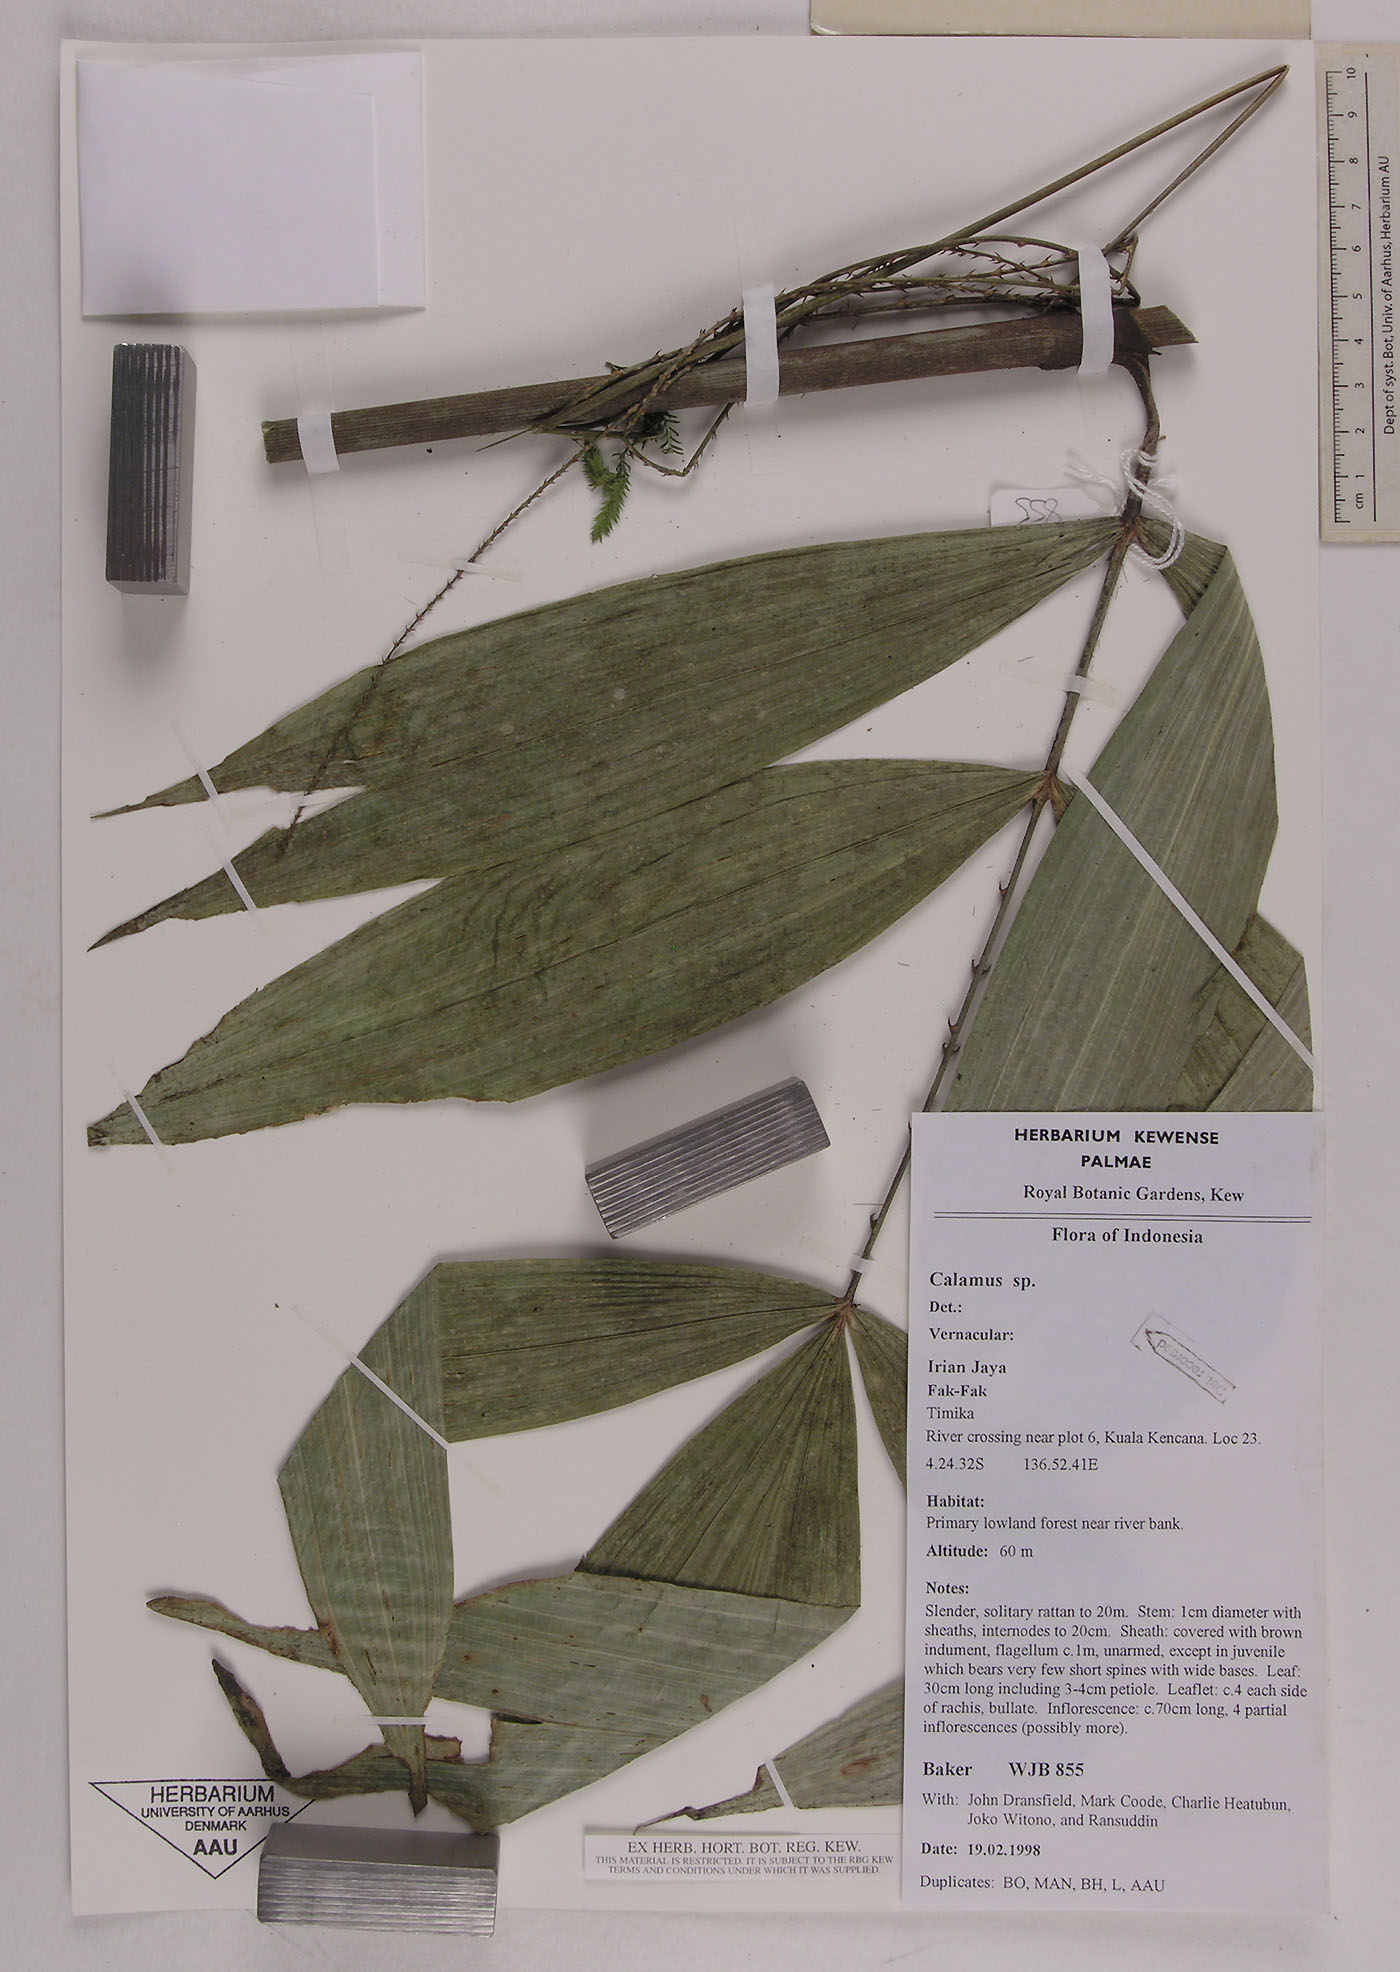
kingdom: Plantae
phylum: Tracheophyta
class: Liliopsida
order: Arecales
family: Arecaceae
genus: Calamus
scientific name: Calamus
